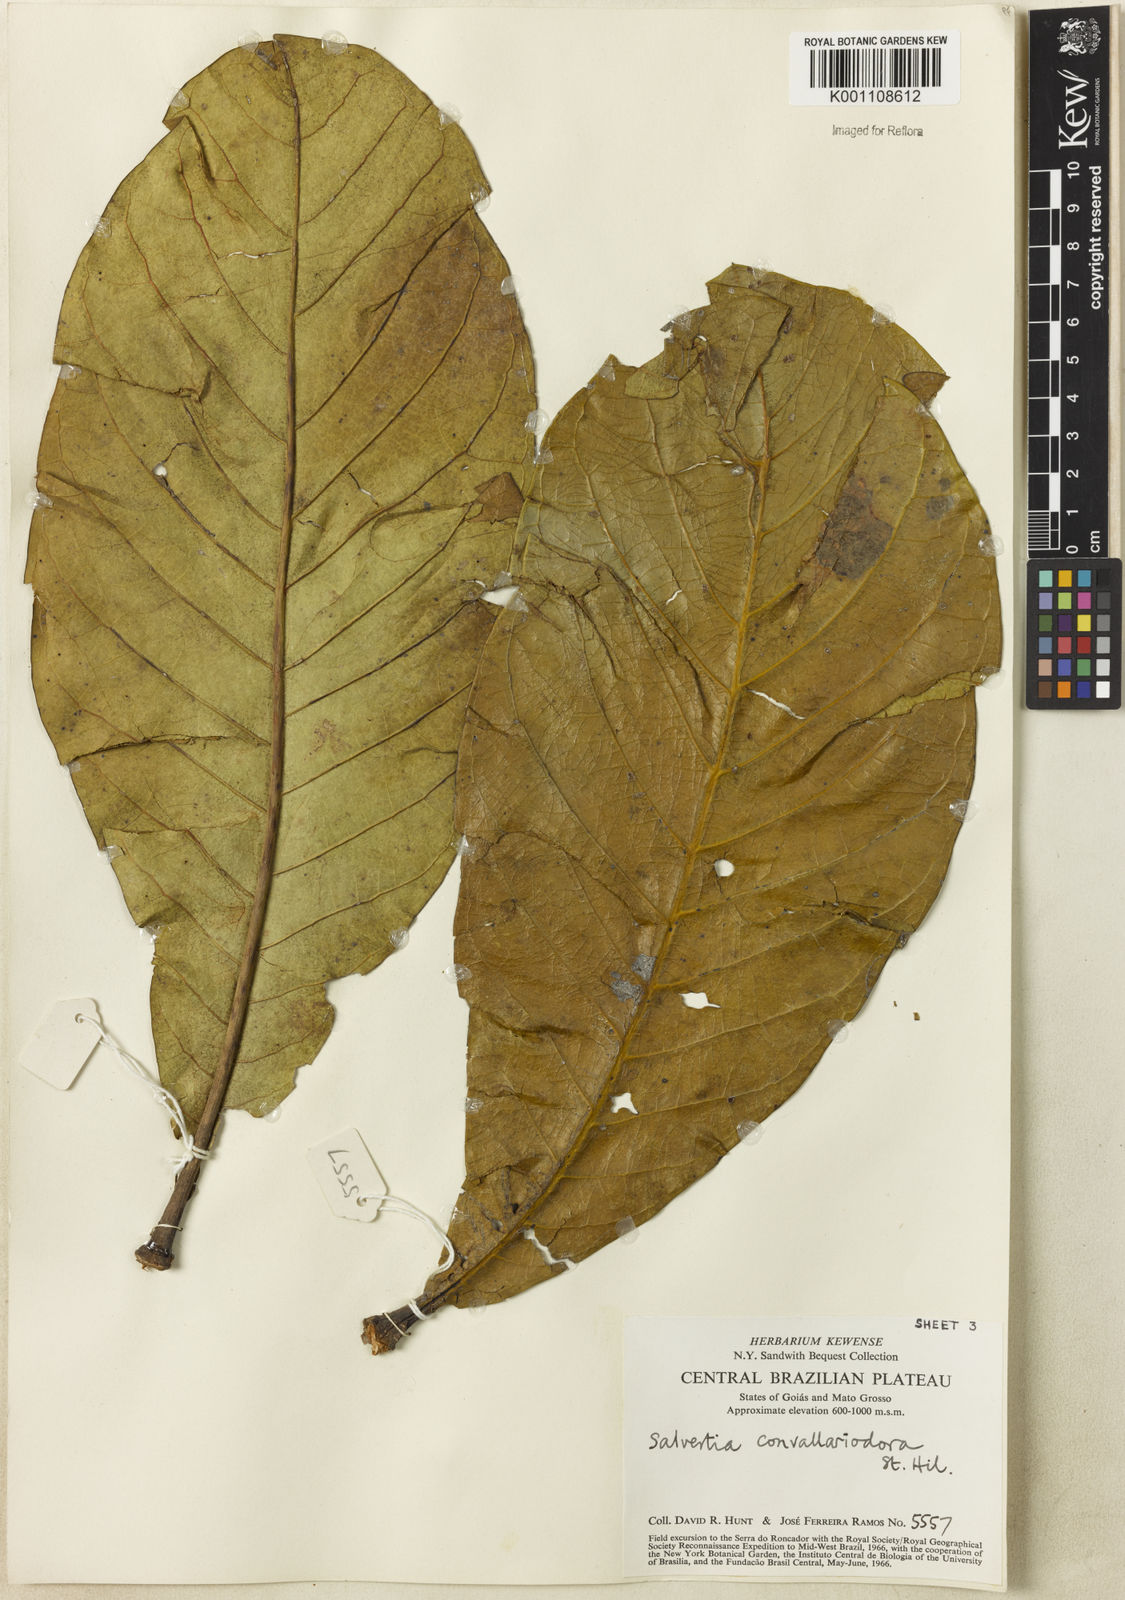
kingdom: Plantae
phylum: Tracheophyta
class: Magnoliopsida
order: Myrtales
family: Vochysiaceae
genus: Salvertia
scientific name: Salvertia convallariodora
